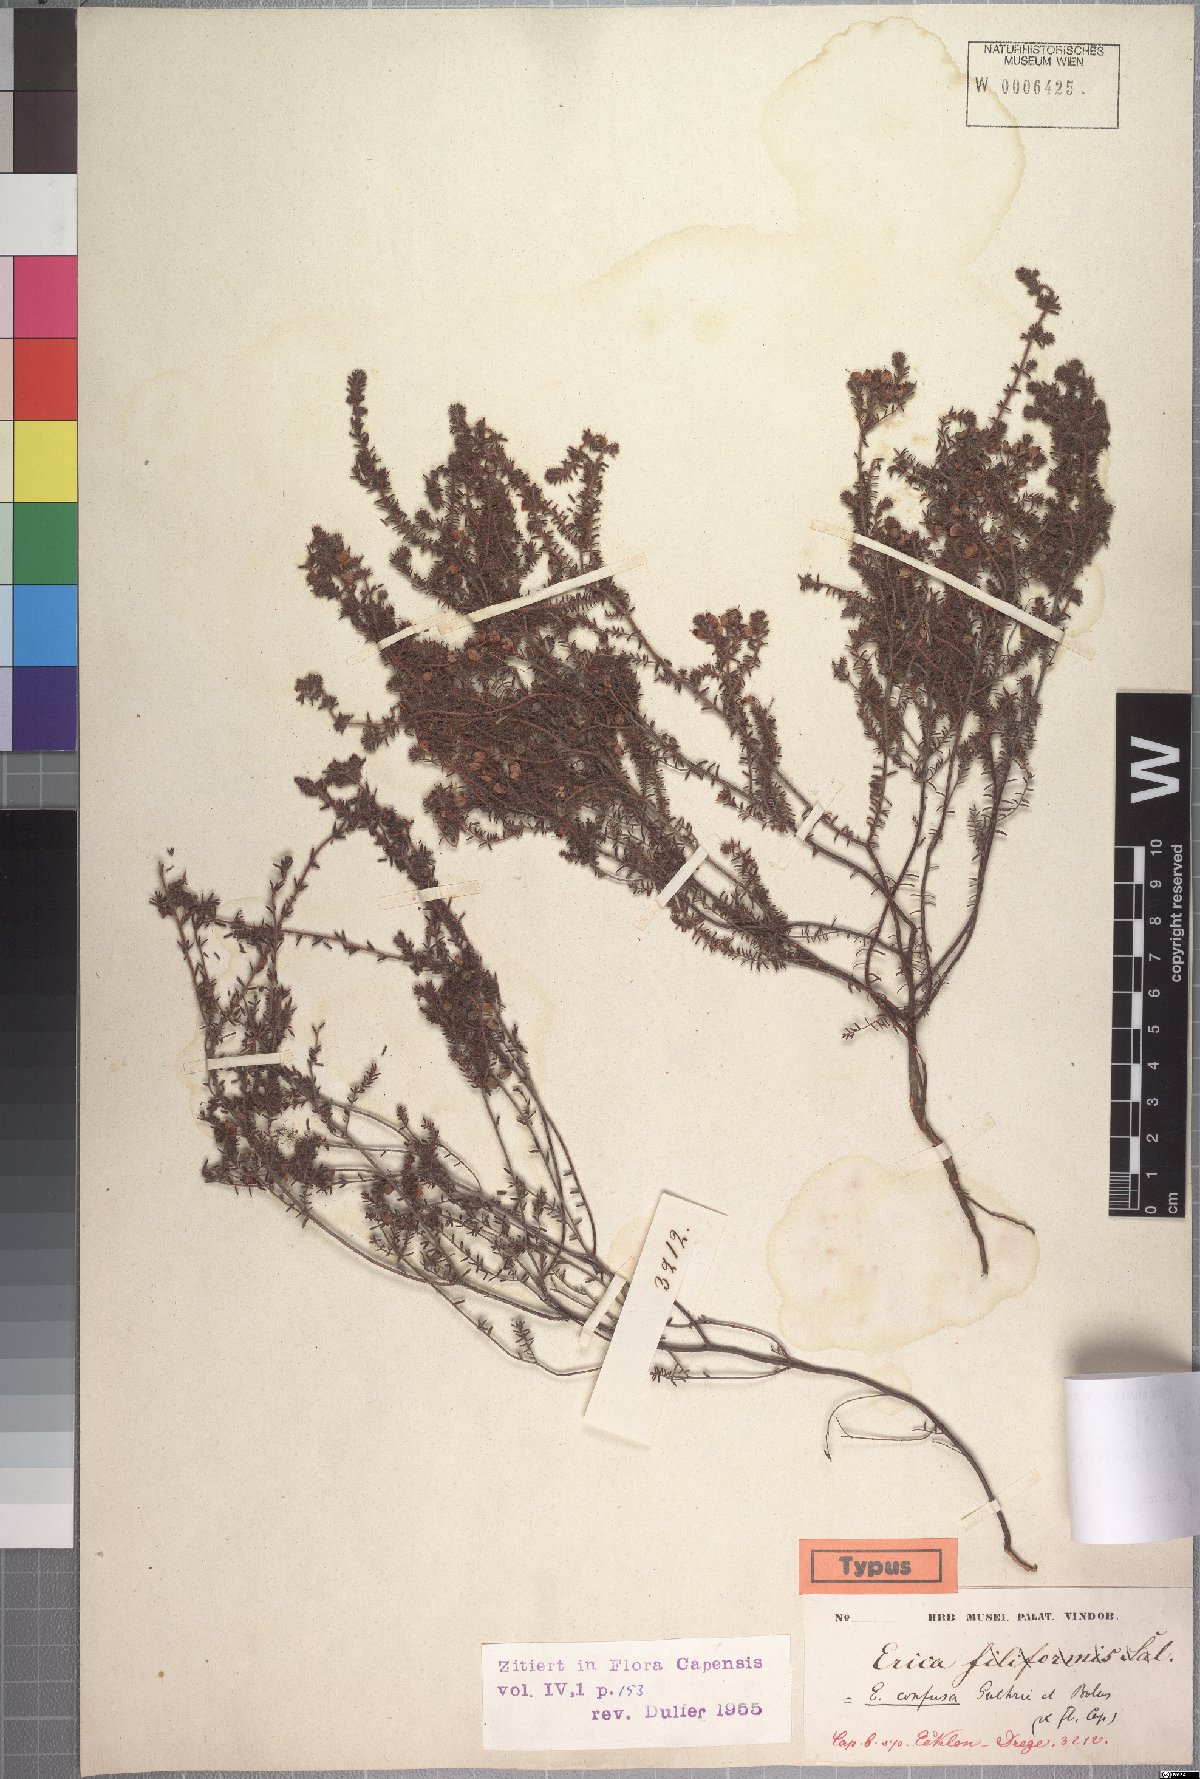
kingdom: Plantae
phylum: Tracheophyta
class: Magnoliopsida
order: Ericales
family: Ericaceae
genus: Erica
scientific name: Erica permutata
